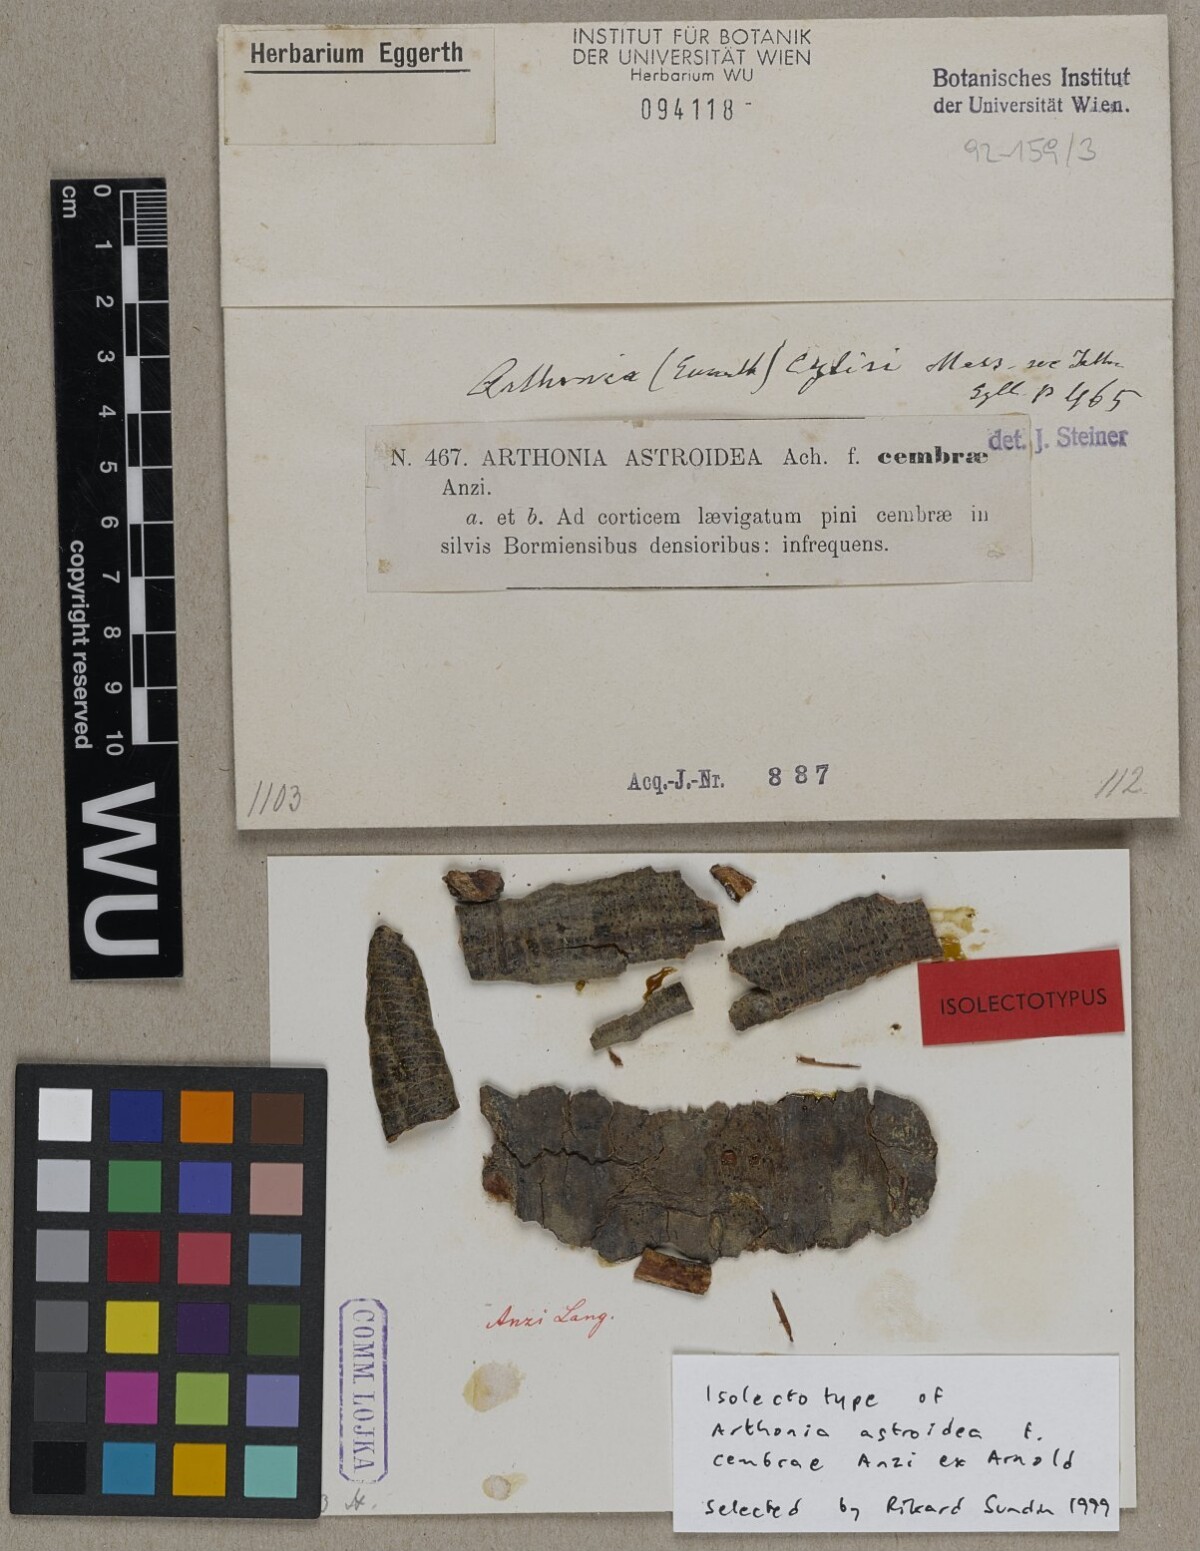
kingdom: Fungi
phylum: Ascomycota
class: Arthoniomycetes
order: Arthoniales
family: Arthoniaceae
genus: Arthonia
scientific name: Arthonia radiata
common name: Asterisk lichen
